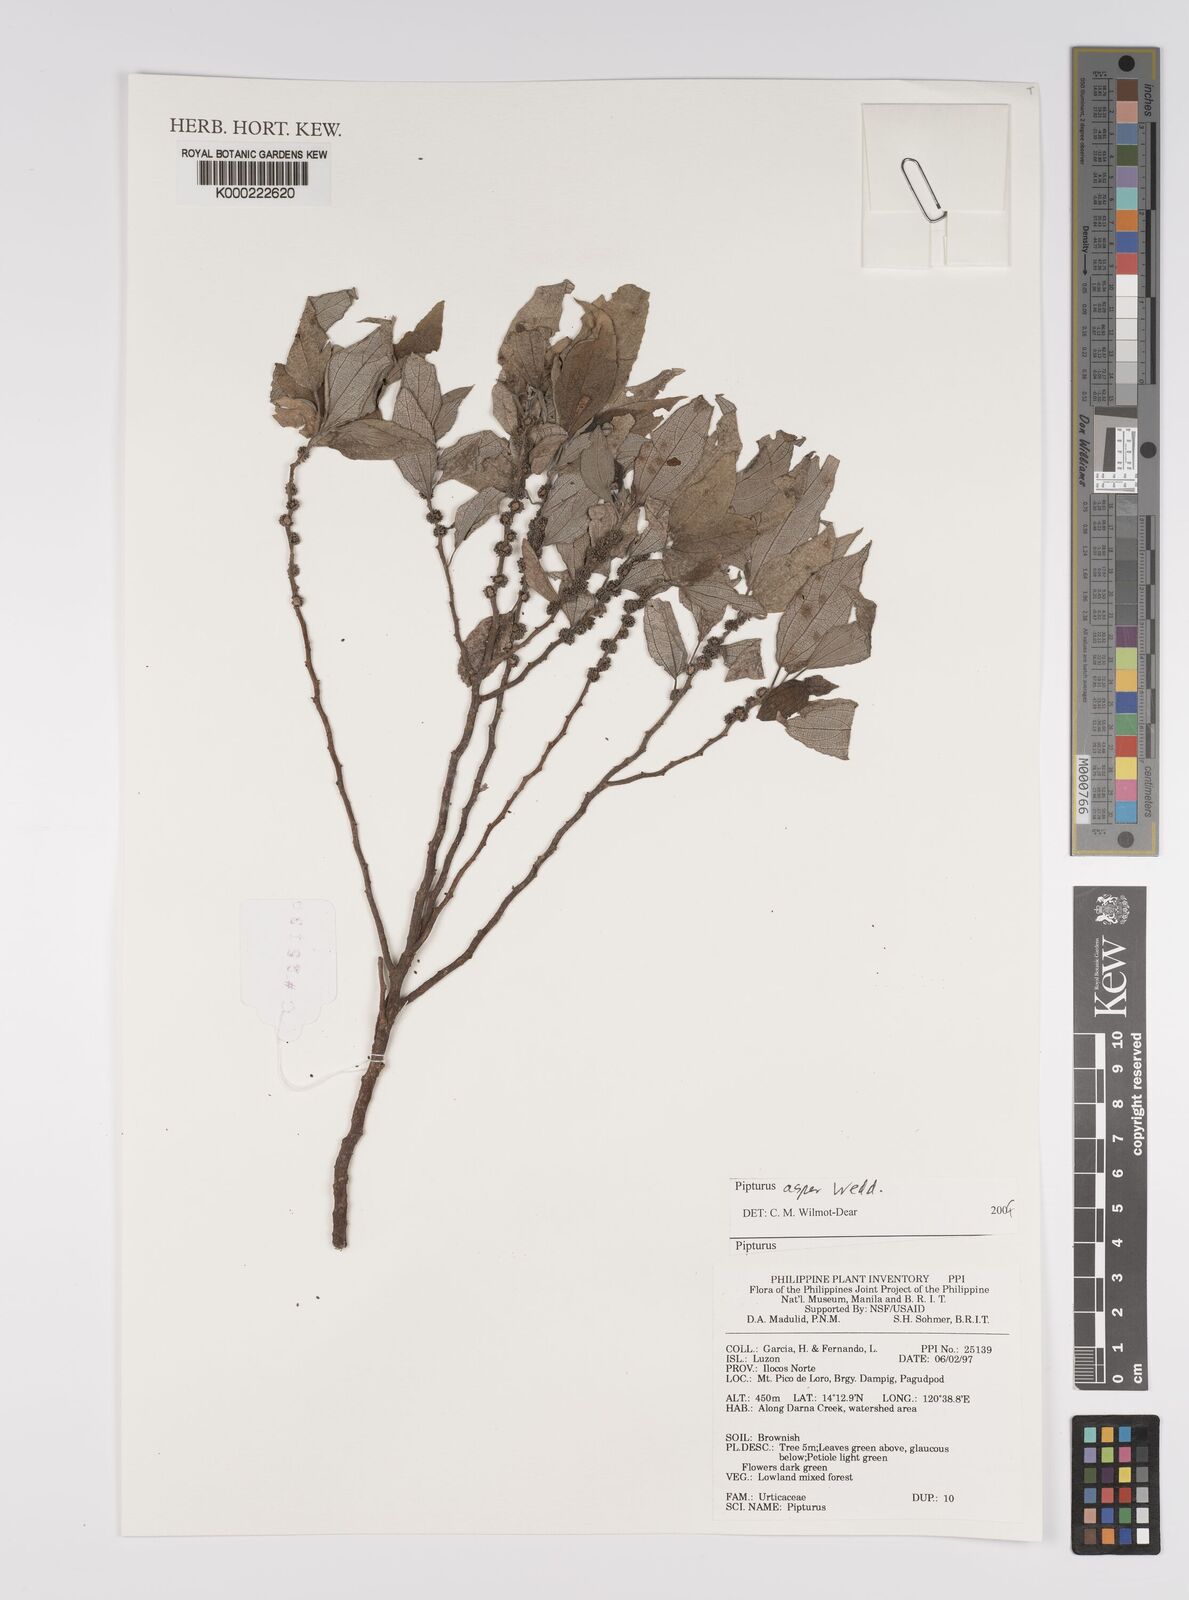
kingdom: Plantae
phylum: Tracheophyta
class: Magnoliopsida
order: Rosales
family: Urticaceae
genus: Pipturus
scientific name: Pipturus arborescens
